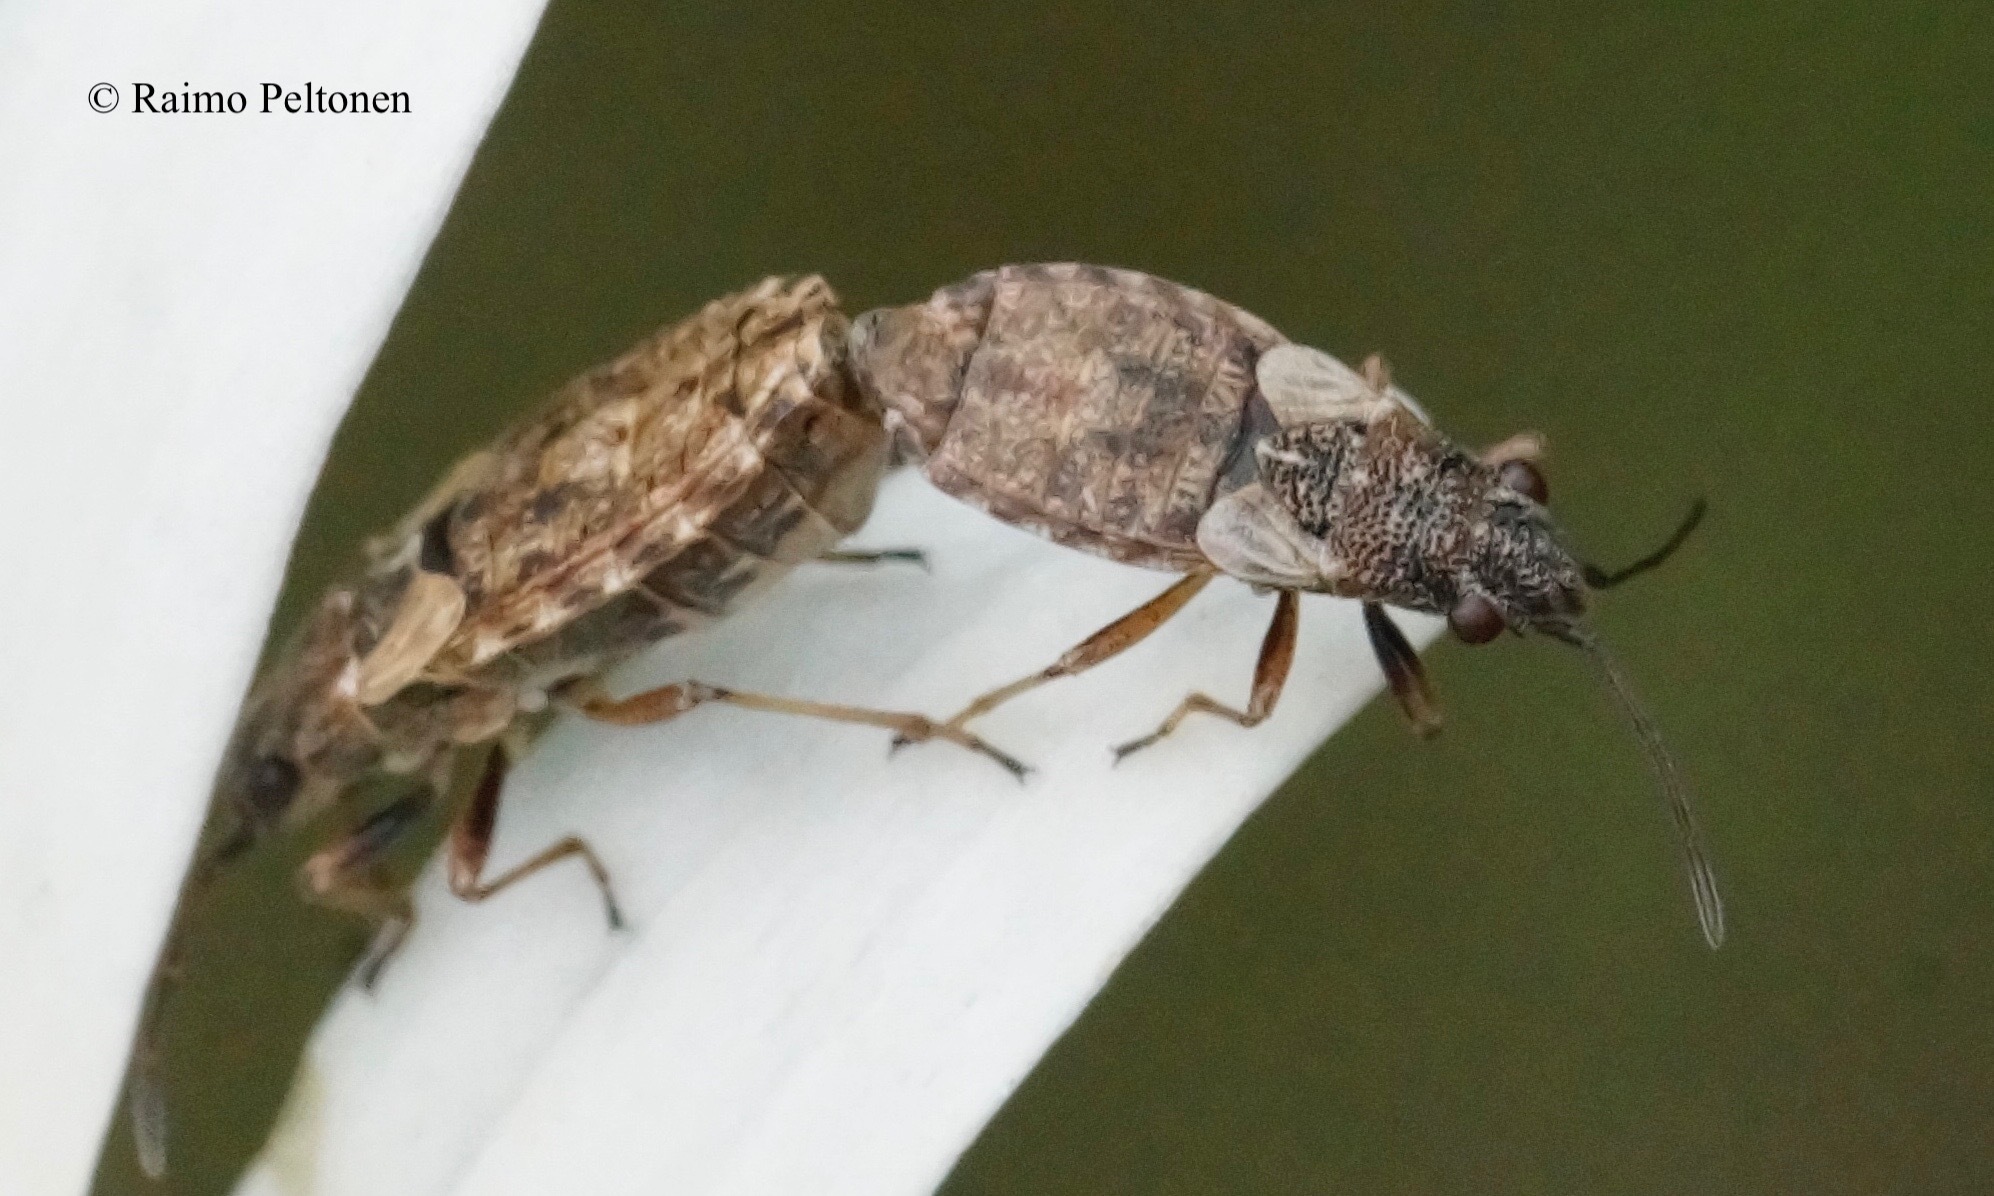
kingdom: Animalia
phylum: Arthropoda
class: Insecta
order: Hemiptera
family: Lygaeidae
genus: Nithecus
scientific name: Nithecus jacobaeae
